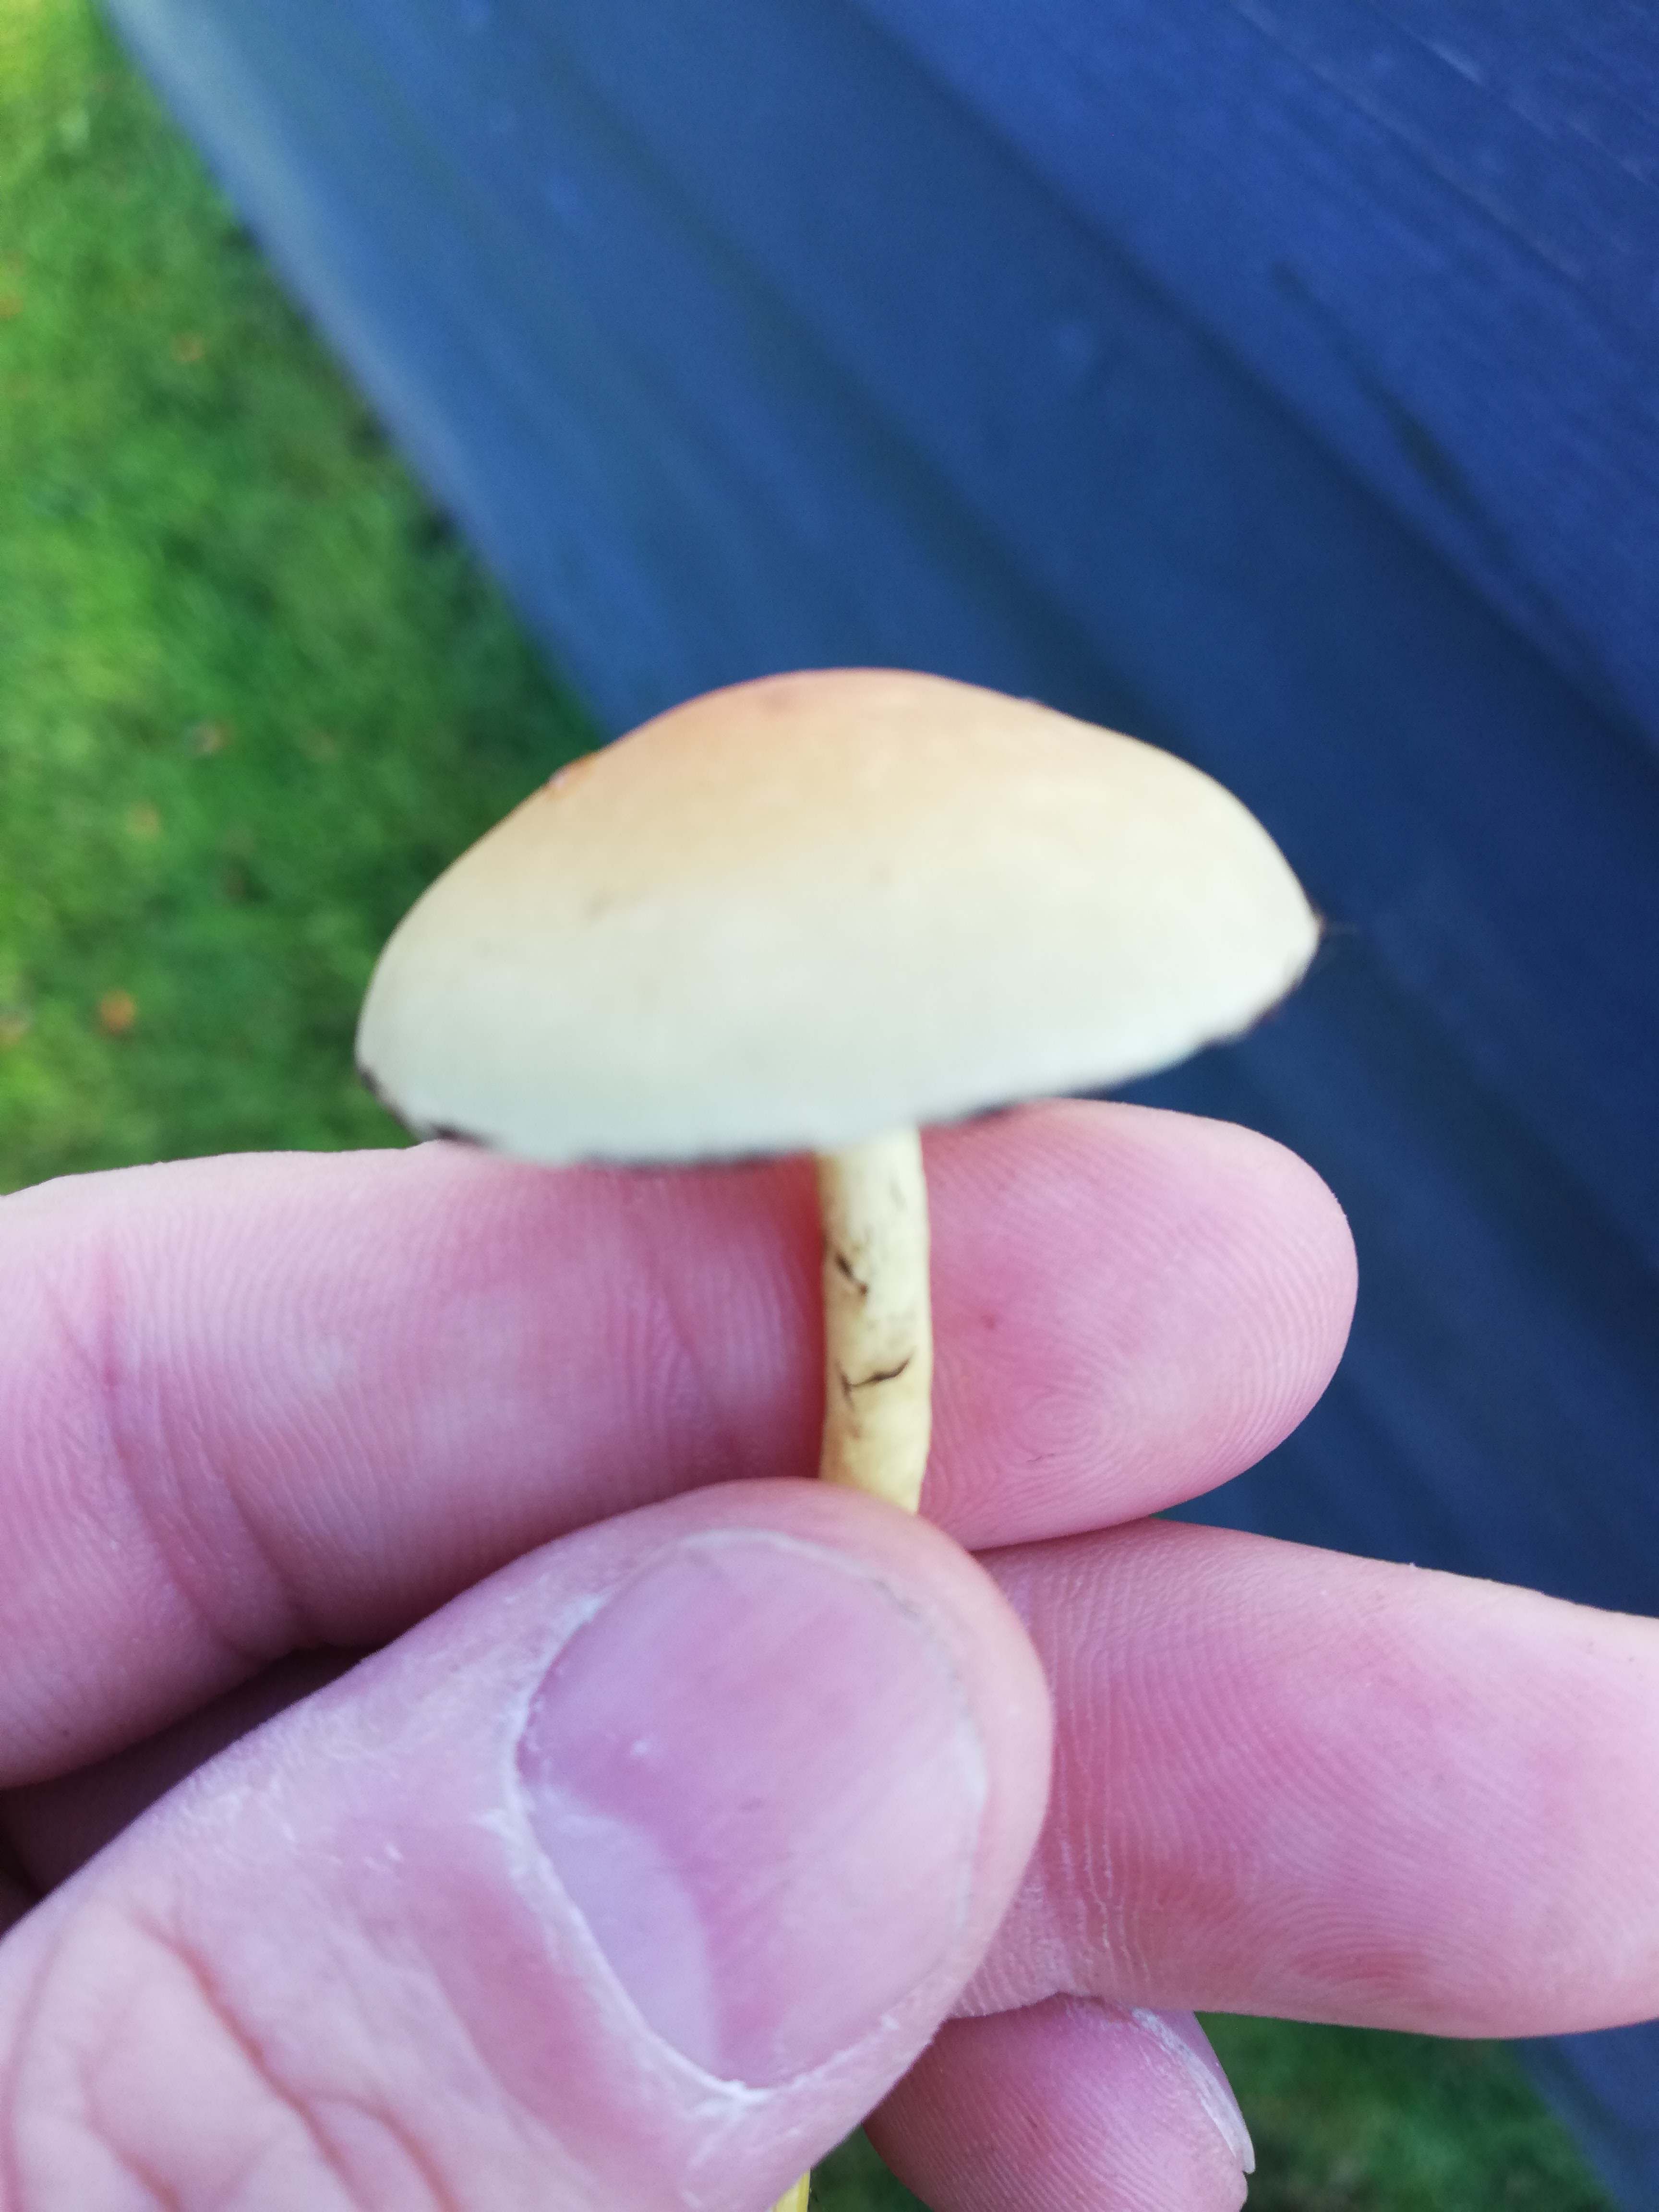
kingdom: Fungi
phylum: Basidiomycota
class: Agaricomycetes
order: Agaricales
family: Strophariaceae
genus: Hypholoma
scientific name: Hypholoma fasciculare
